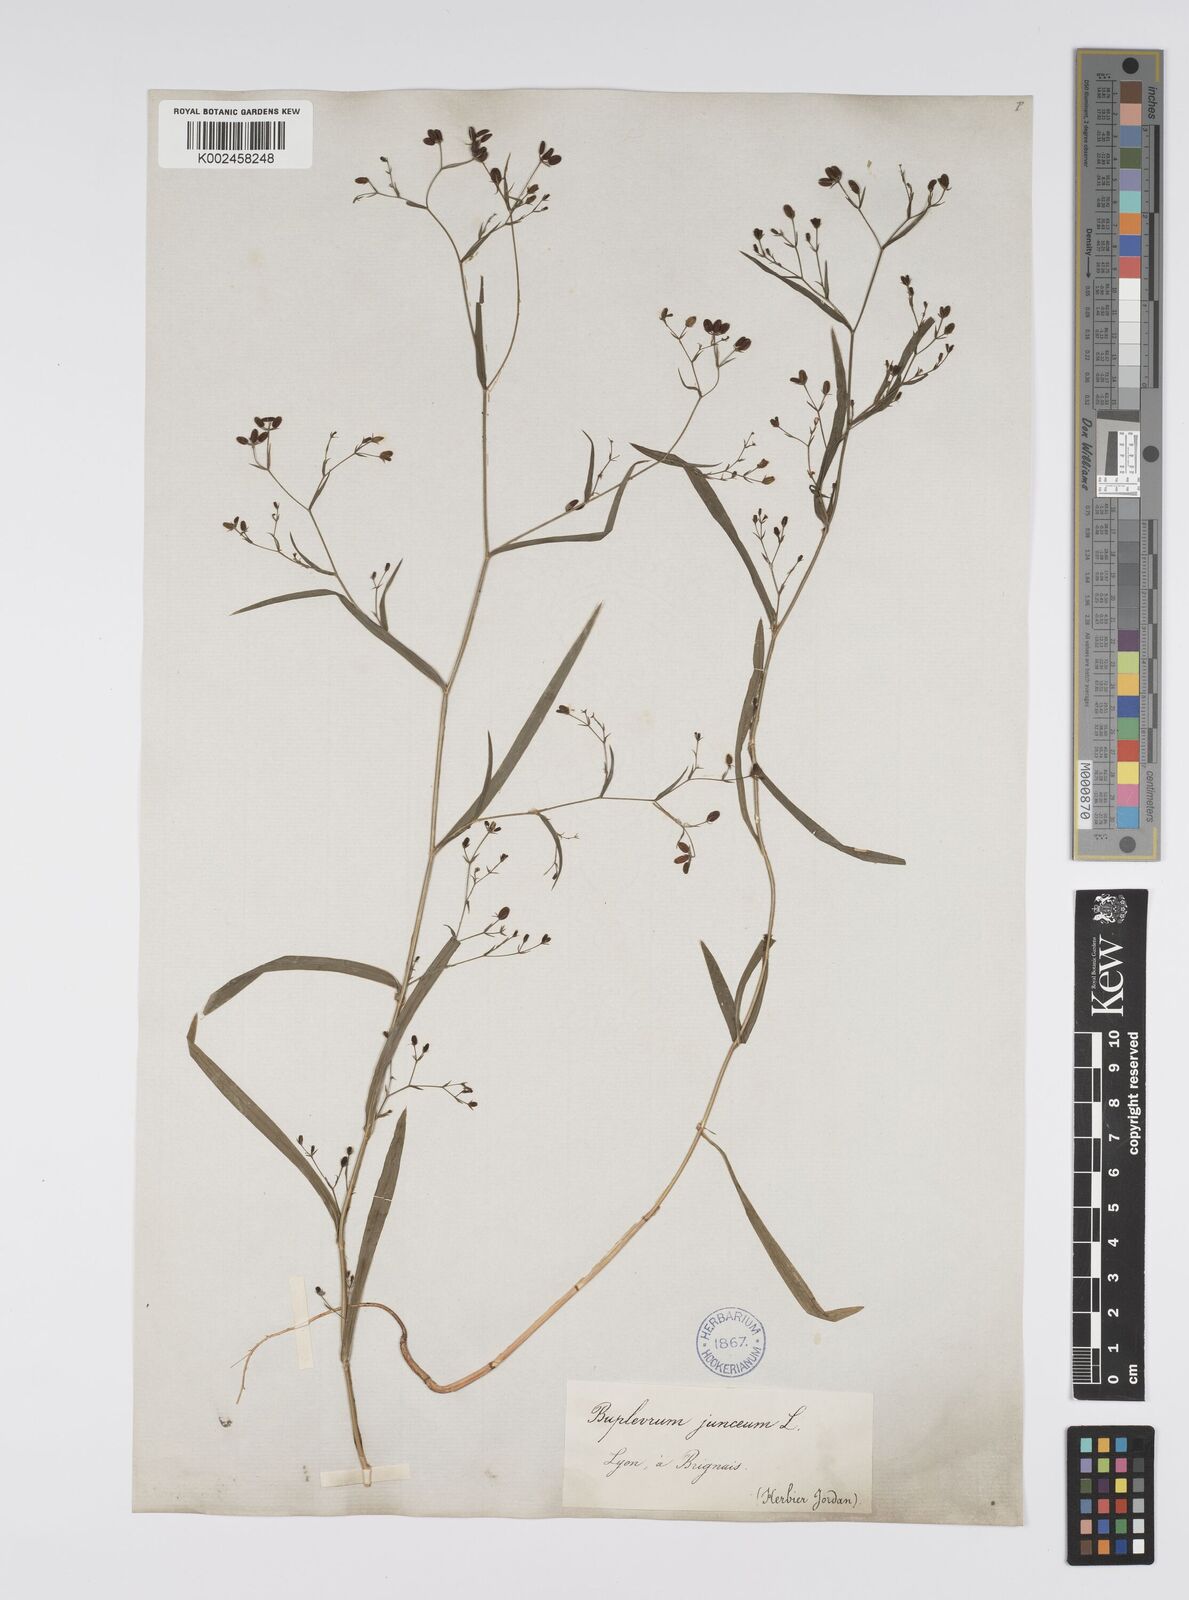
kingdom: Plantae
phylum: Tracheophyta
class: Magnoliopsida
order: Apiales
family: Apiaceae
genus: Bupleurum
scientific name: Bupleurum praealtum
